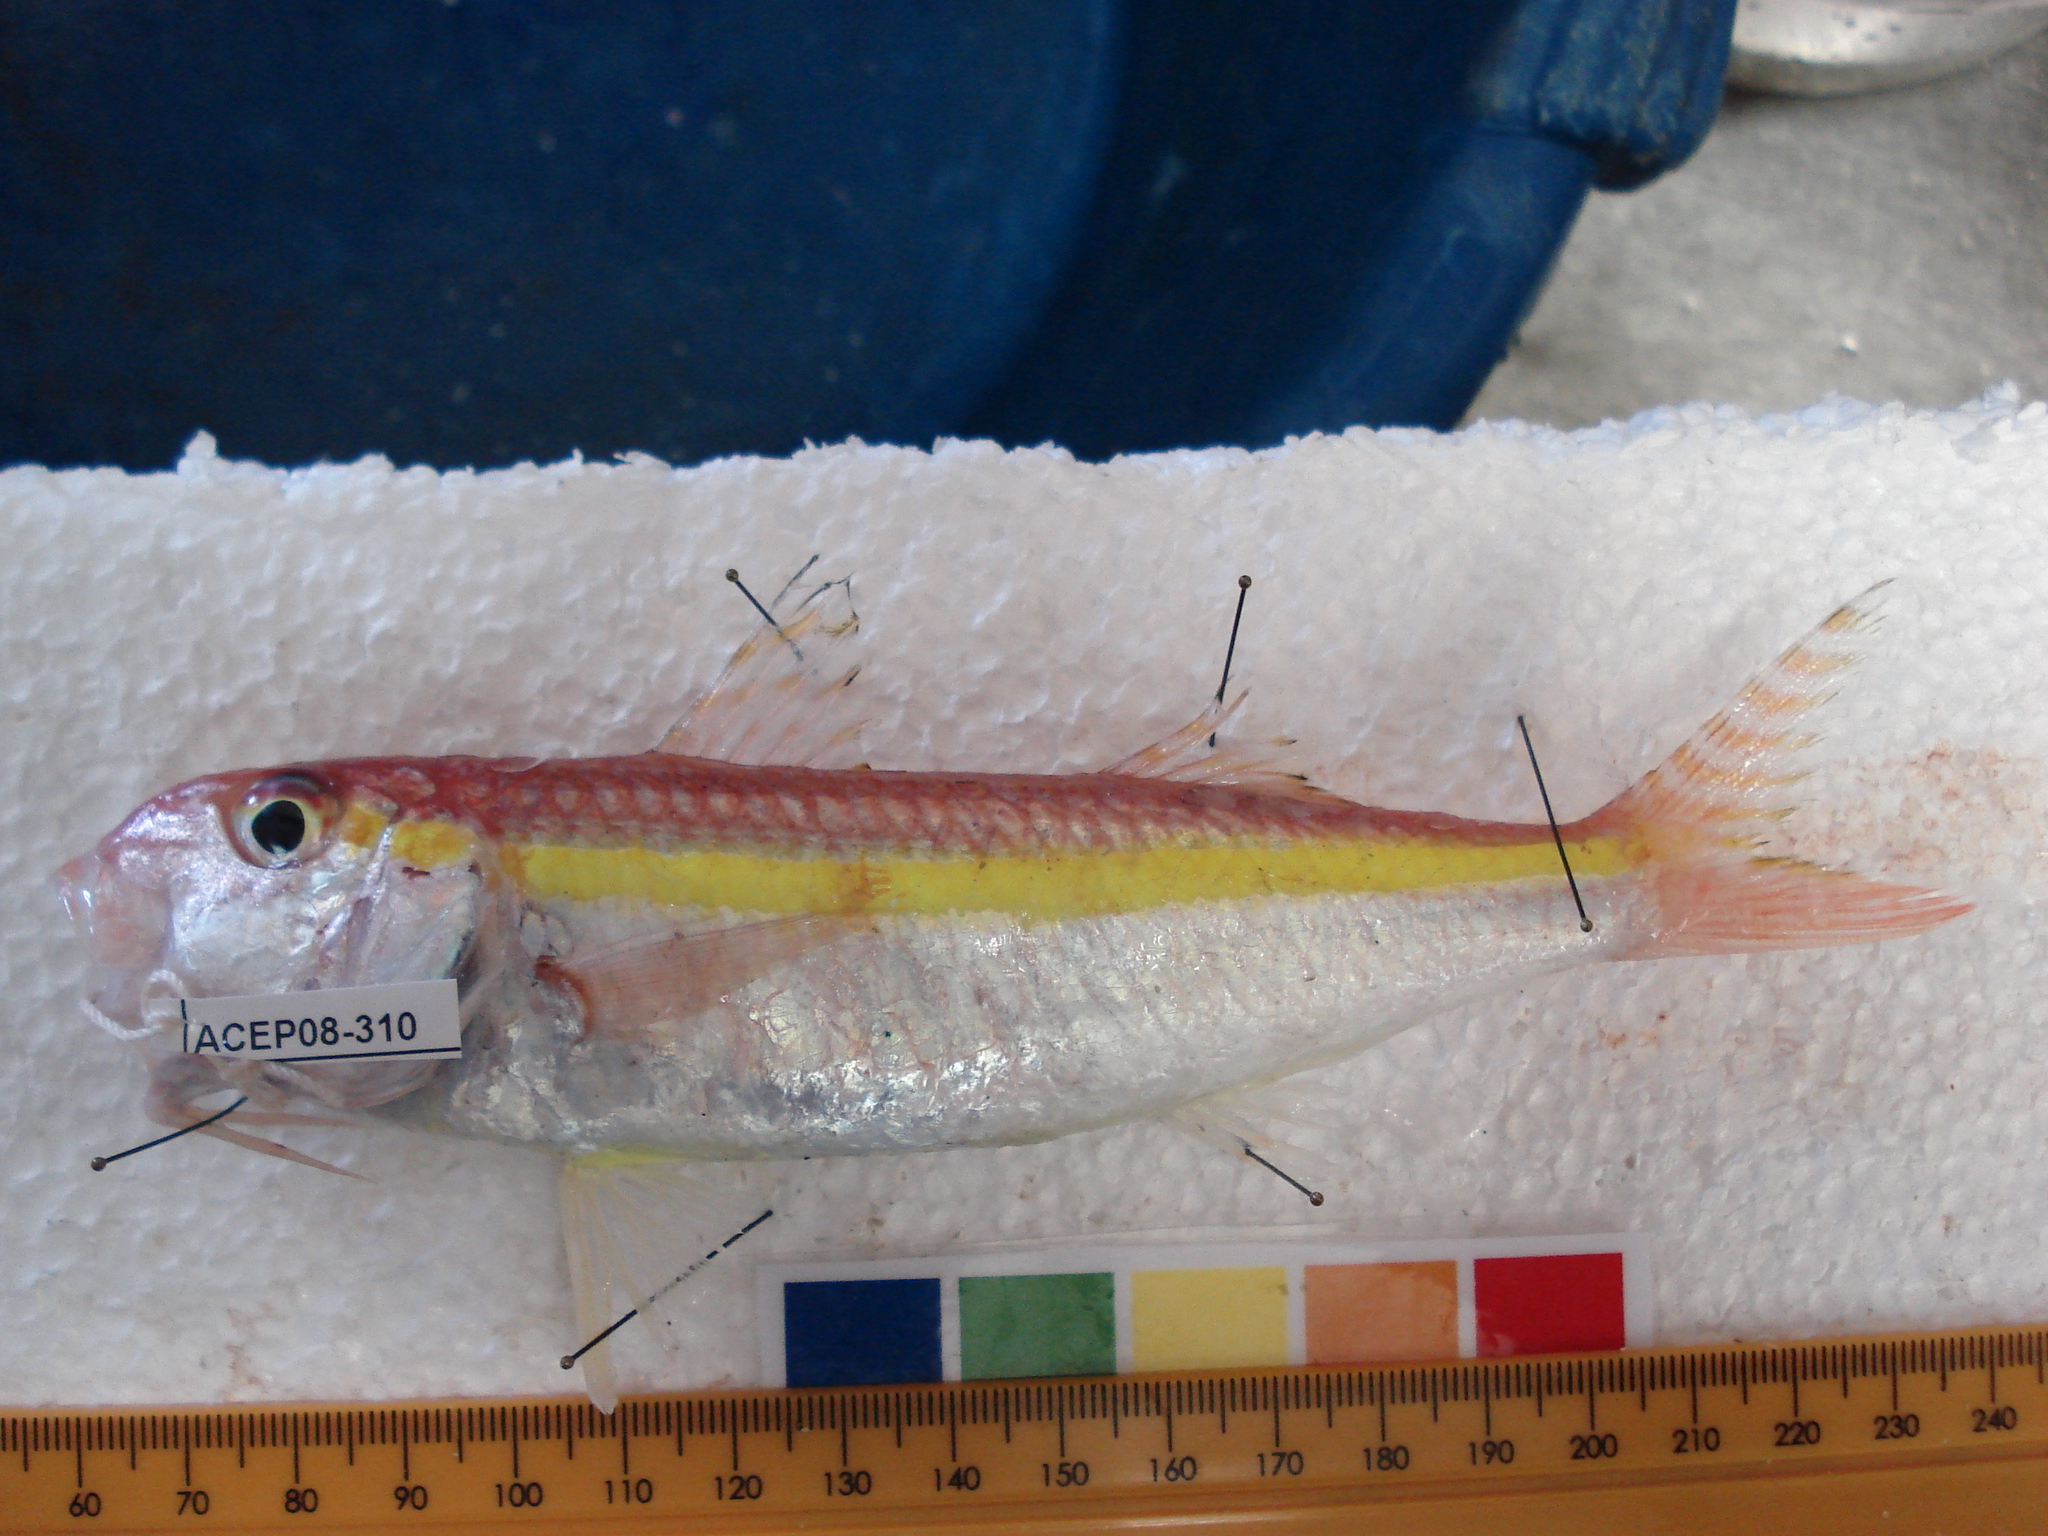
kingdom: Animalia
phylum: Chordata
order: Perciformes
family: Mullidae
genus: Upeneus
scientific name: Upeneus moluccensis
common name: Goldband goatfish
